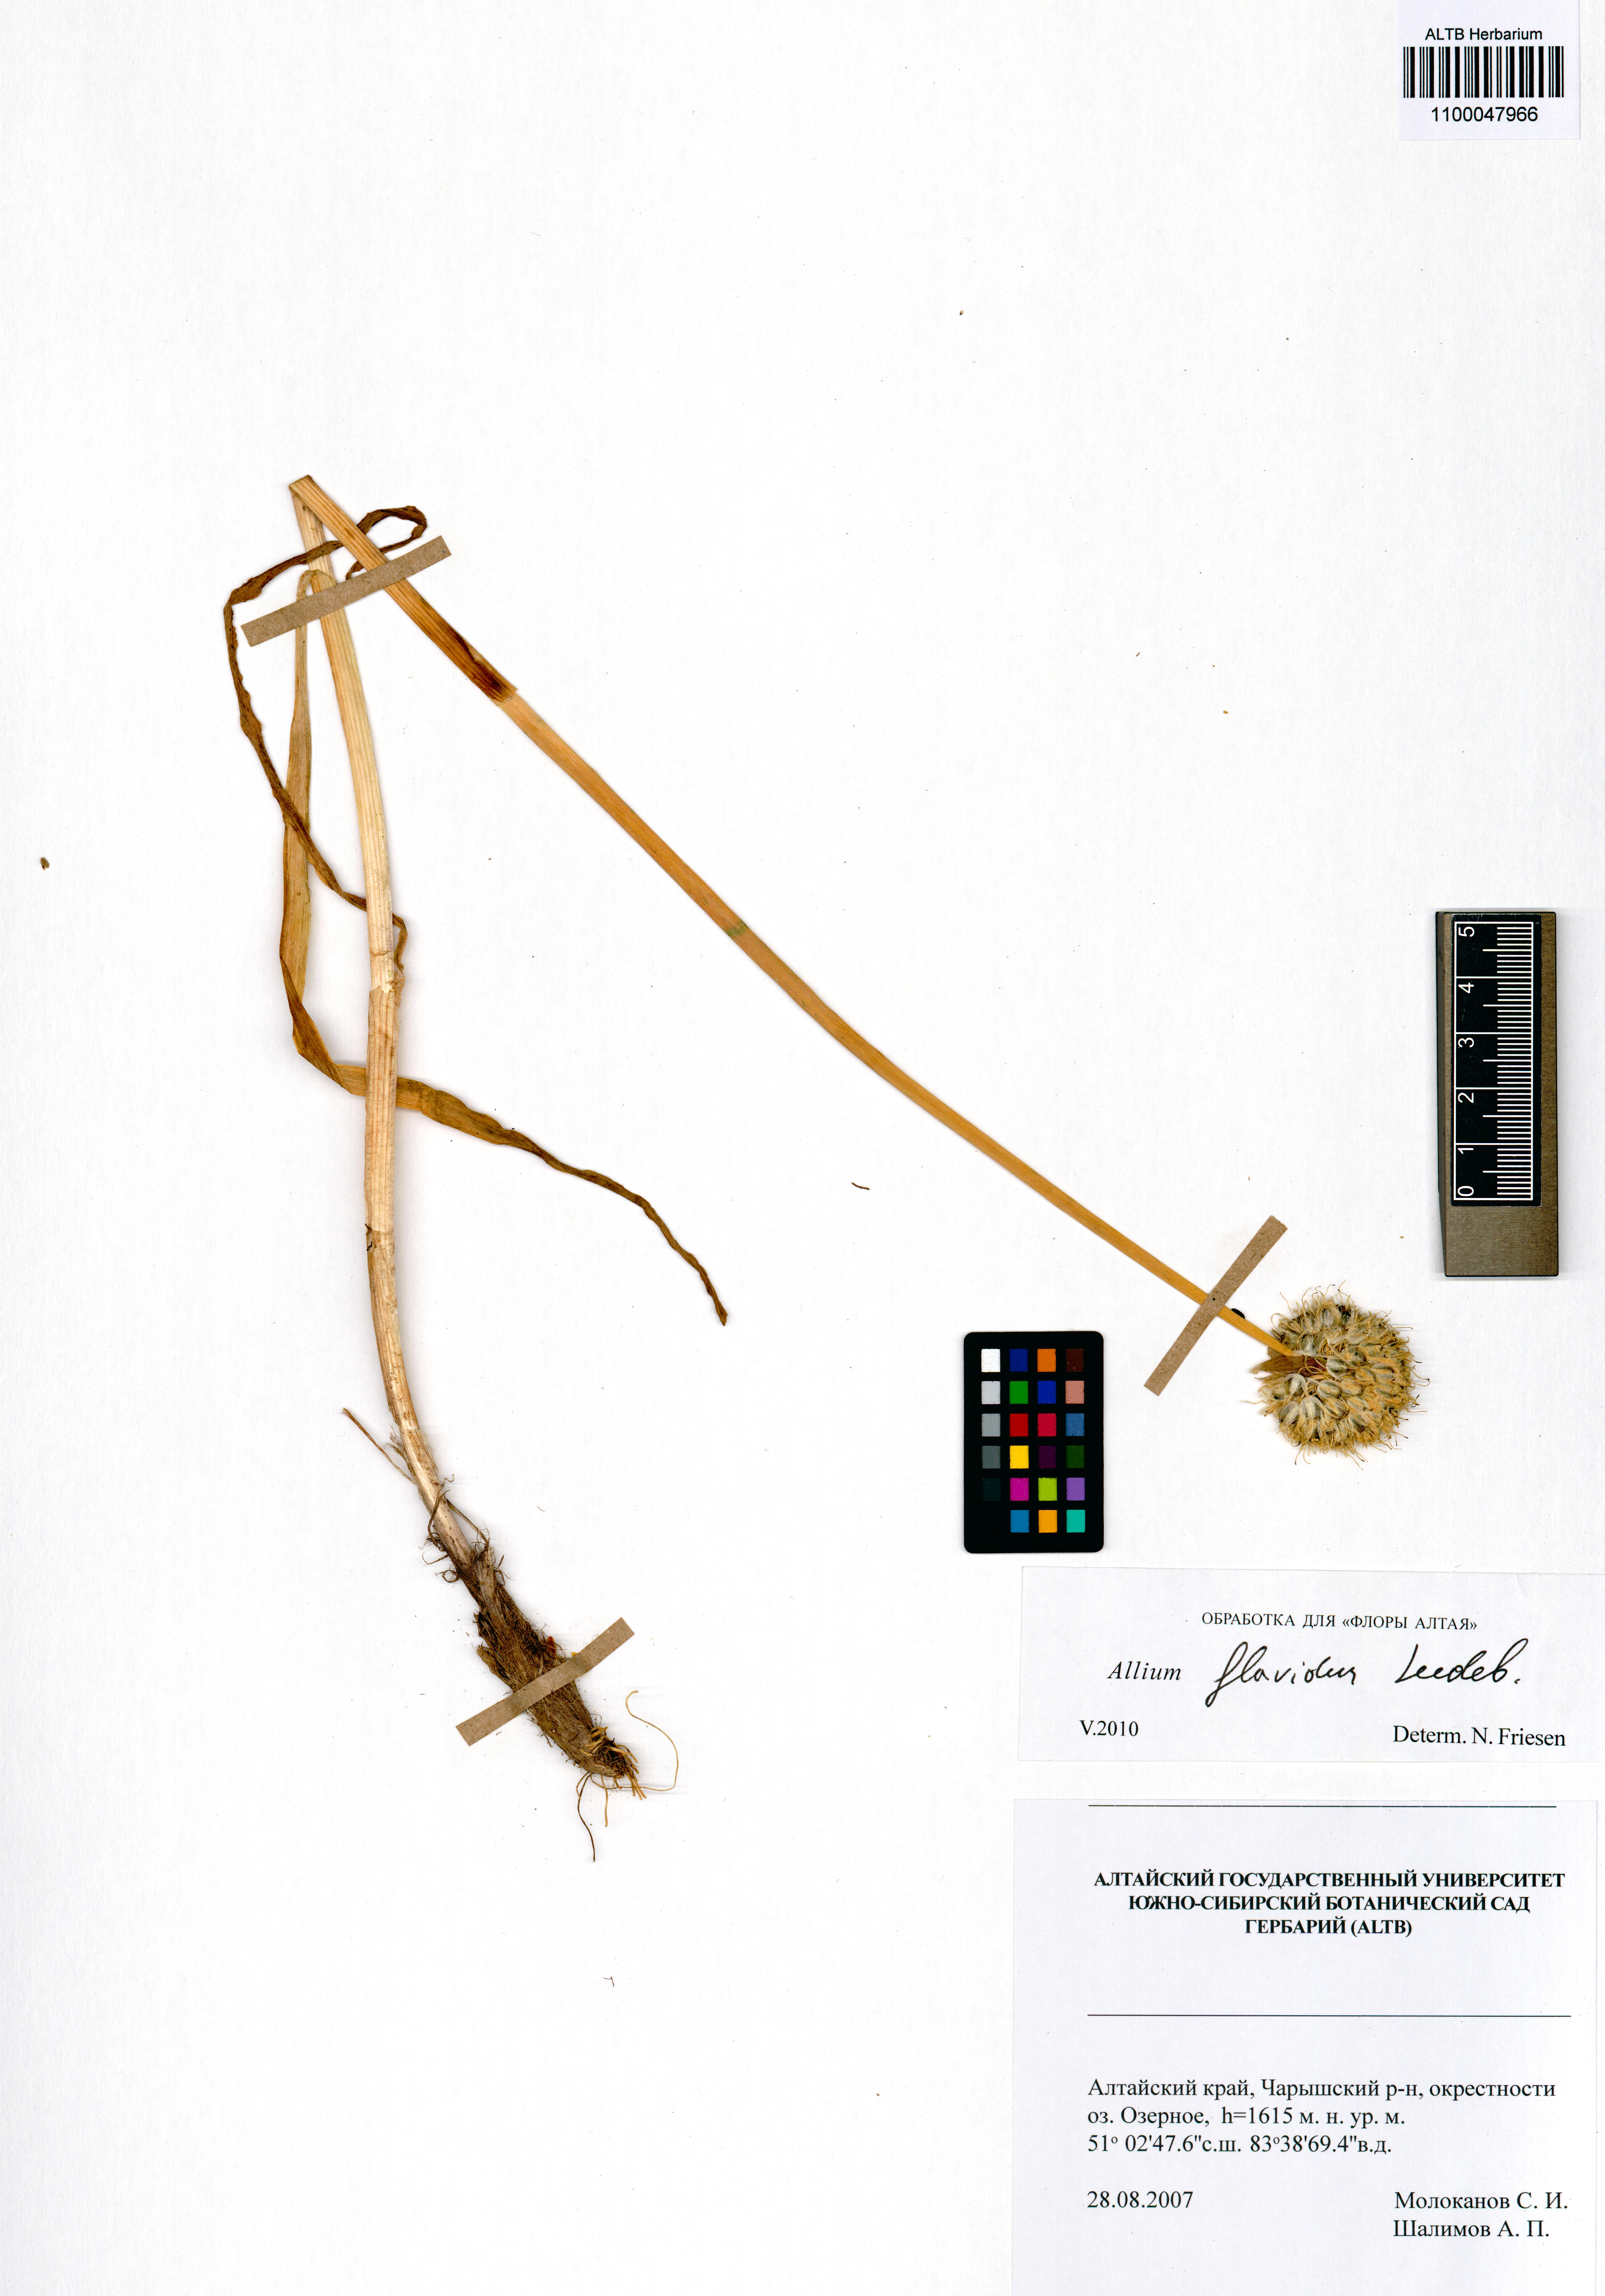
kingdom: Plantae
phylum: Tracheophyta
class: Liliopsida
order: Asparagales
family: Amaryllidaceae
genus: Allium
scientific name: Allium flavidum
